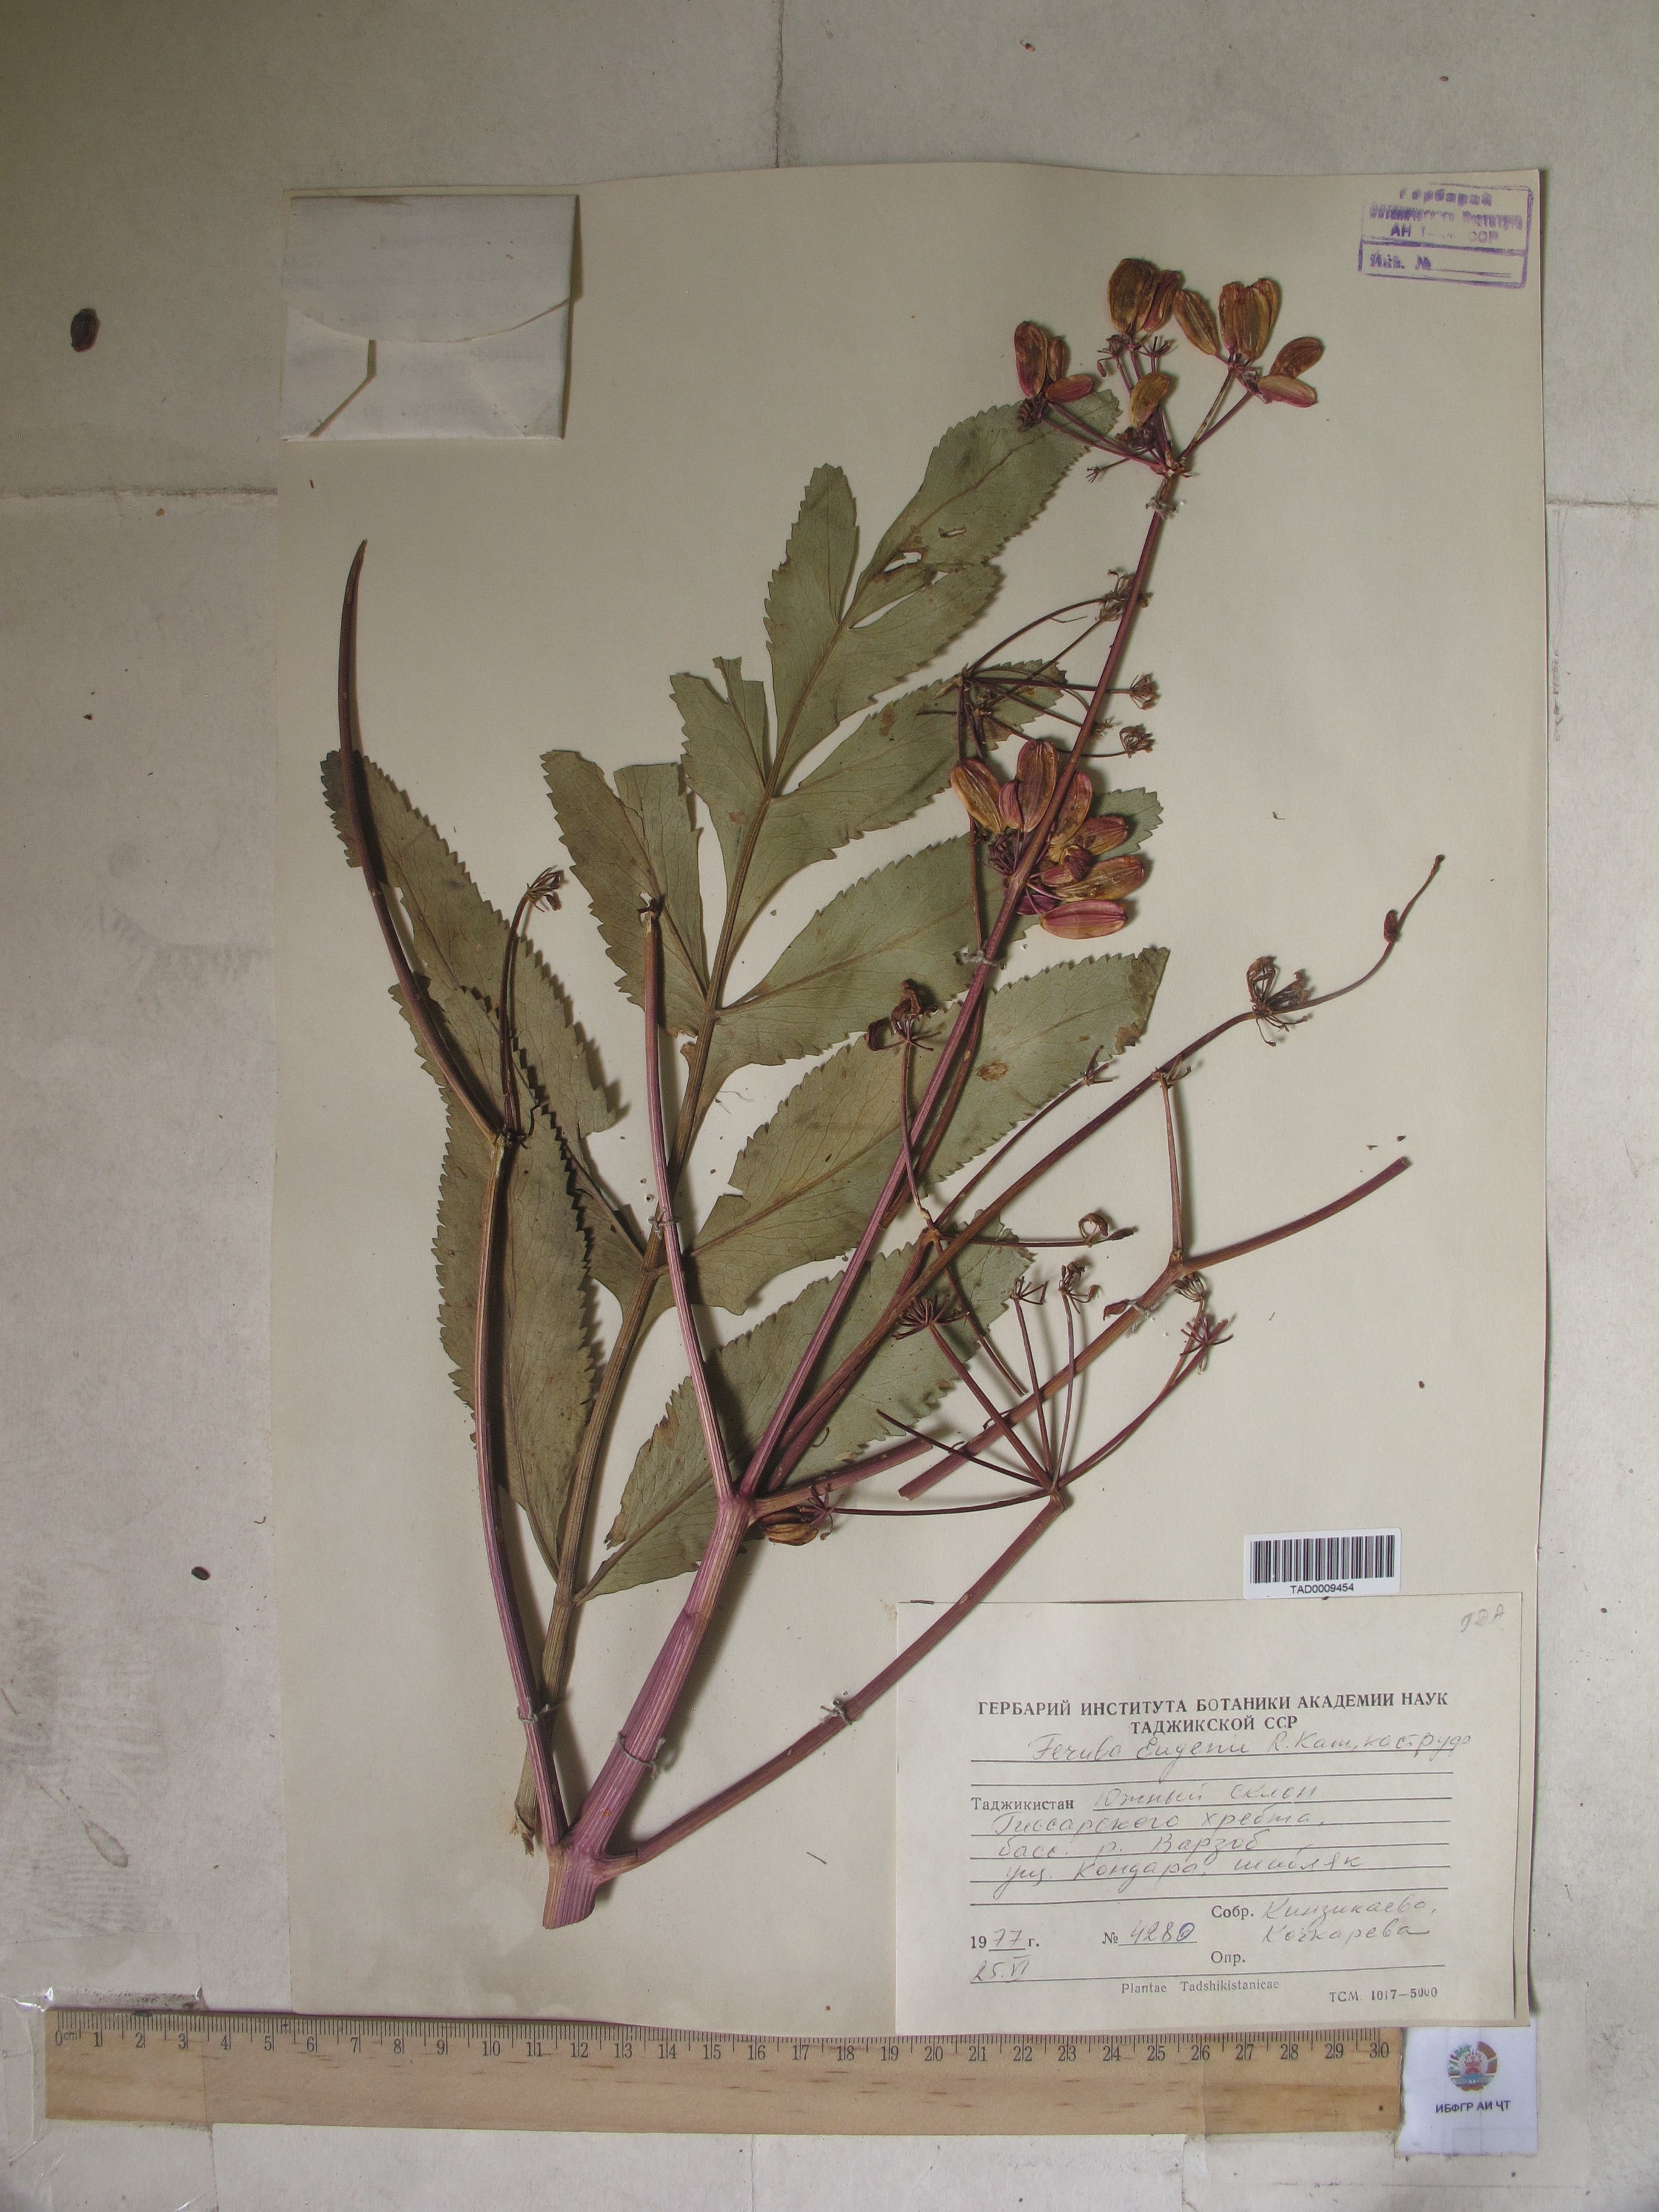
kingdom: Plantae
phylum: Tracheophyta
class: Magnoliopsida
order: Apiales
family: Apiaceae
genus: Ferula
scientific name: Ferula violacea
